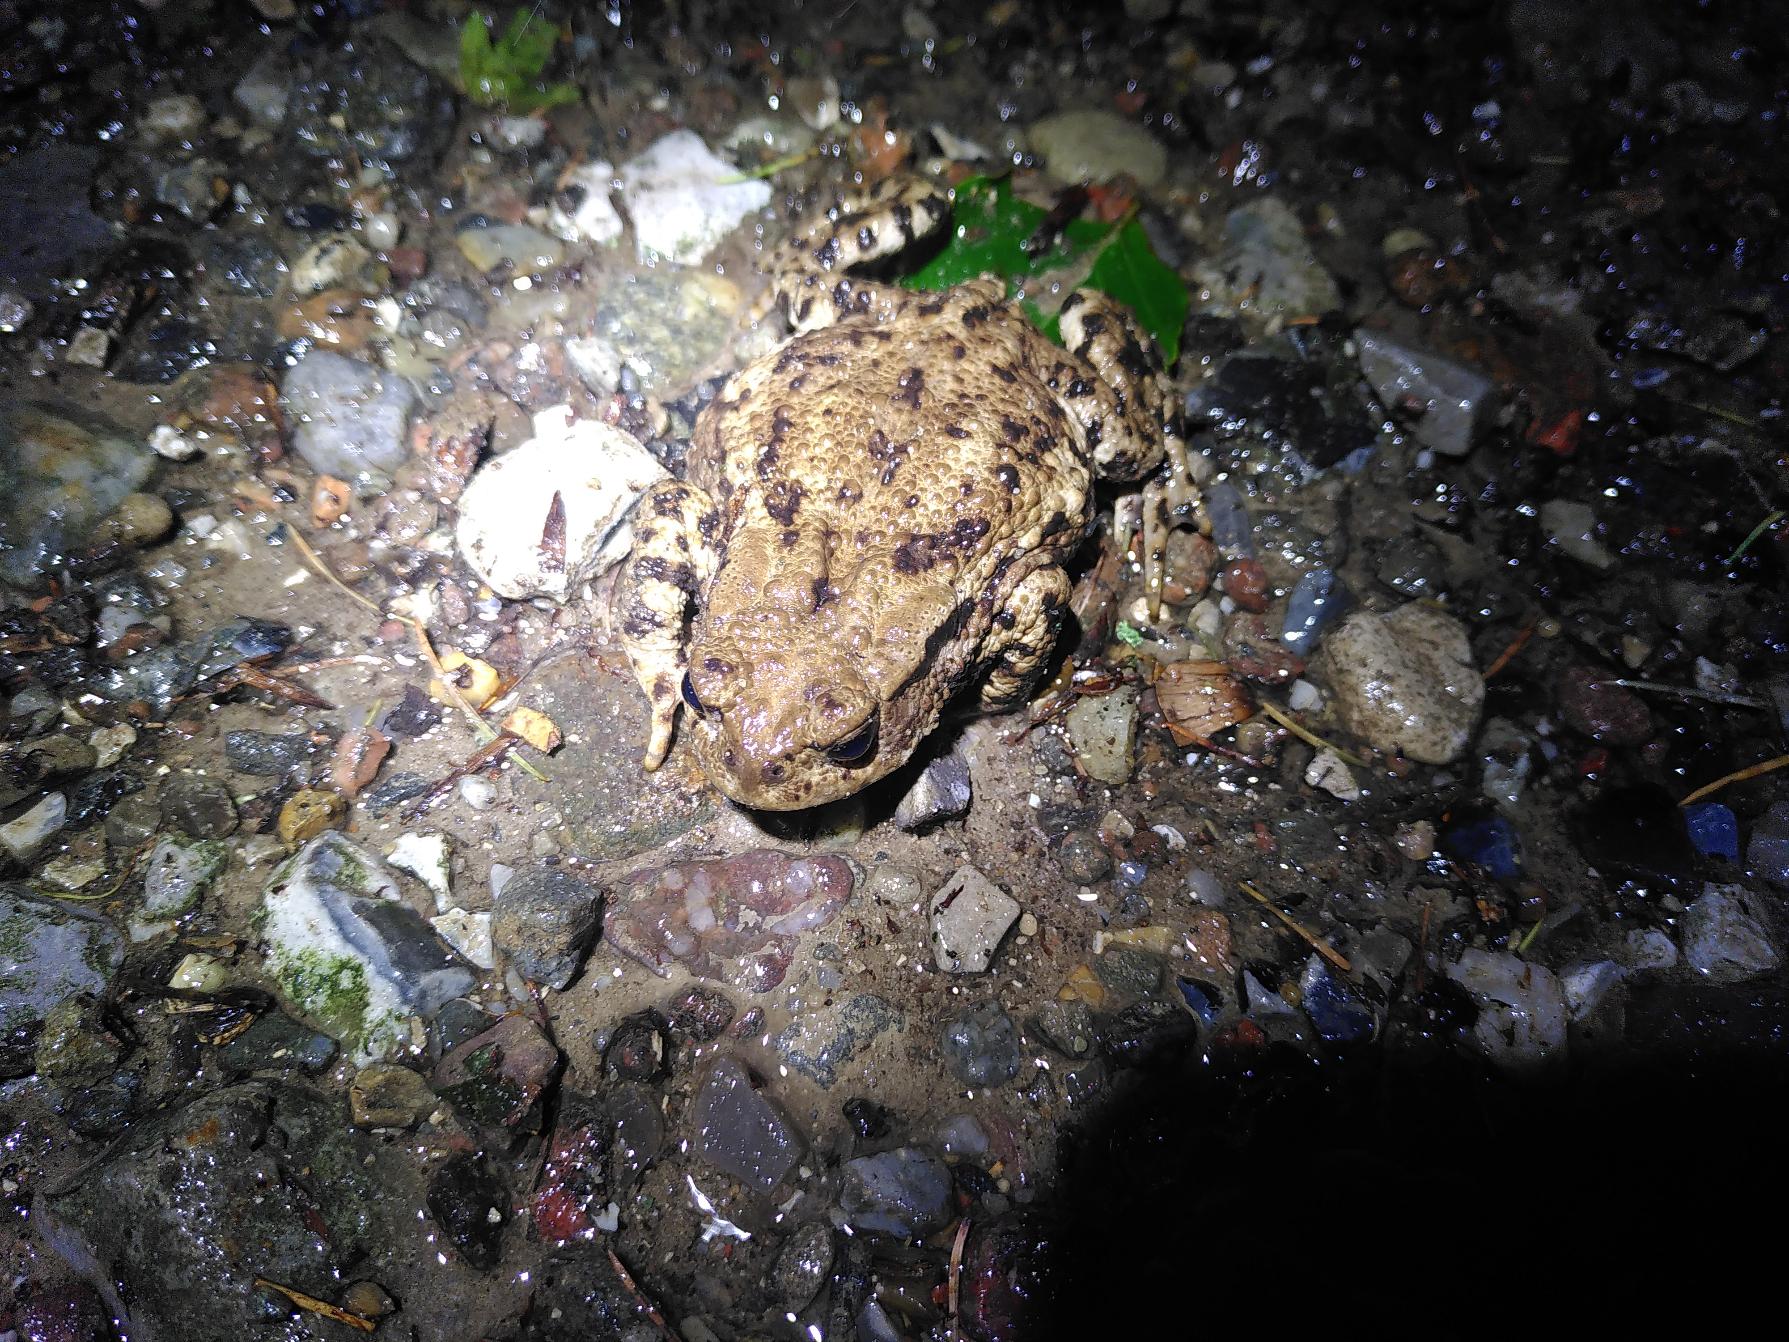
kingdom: Animalia
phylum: Chordata
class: Amphibia
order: Anura
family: Bufonidae
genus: Bufo
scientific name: Bufo bufo
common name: Skrubtudse
